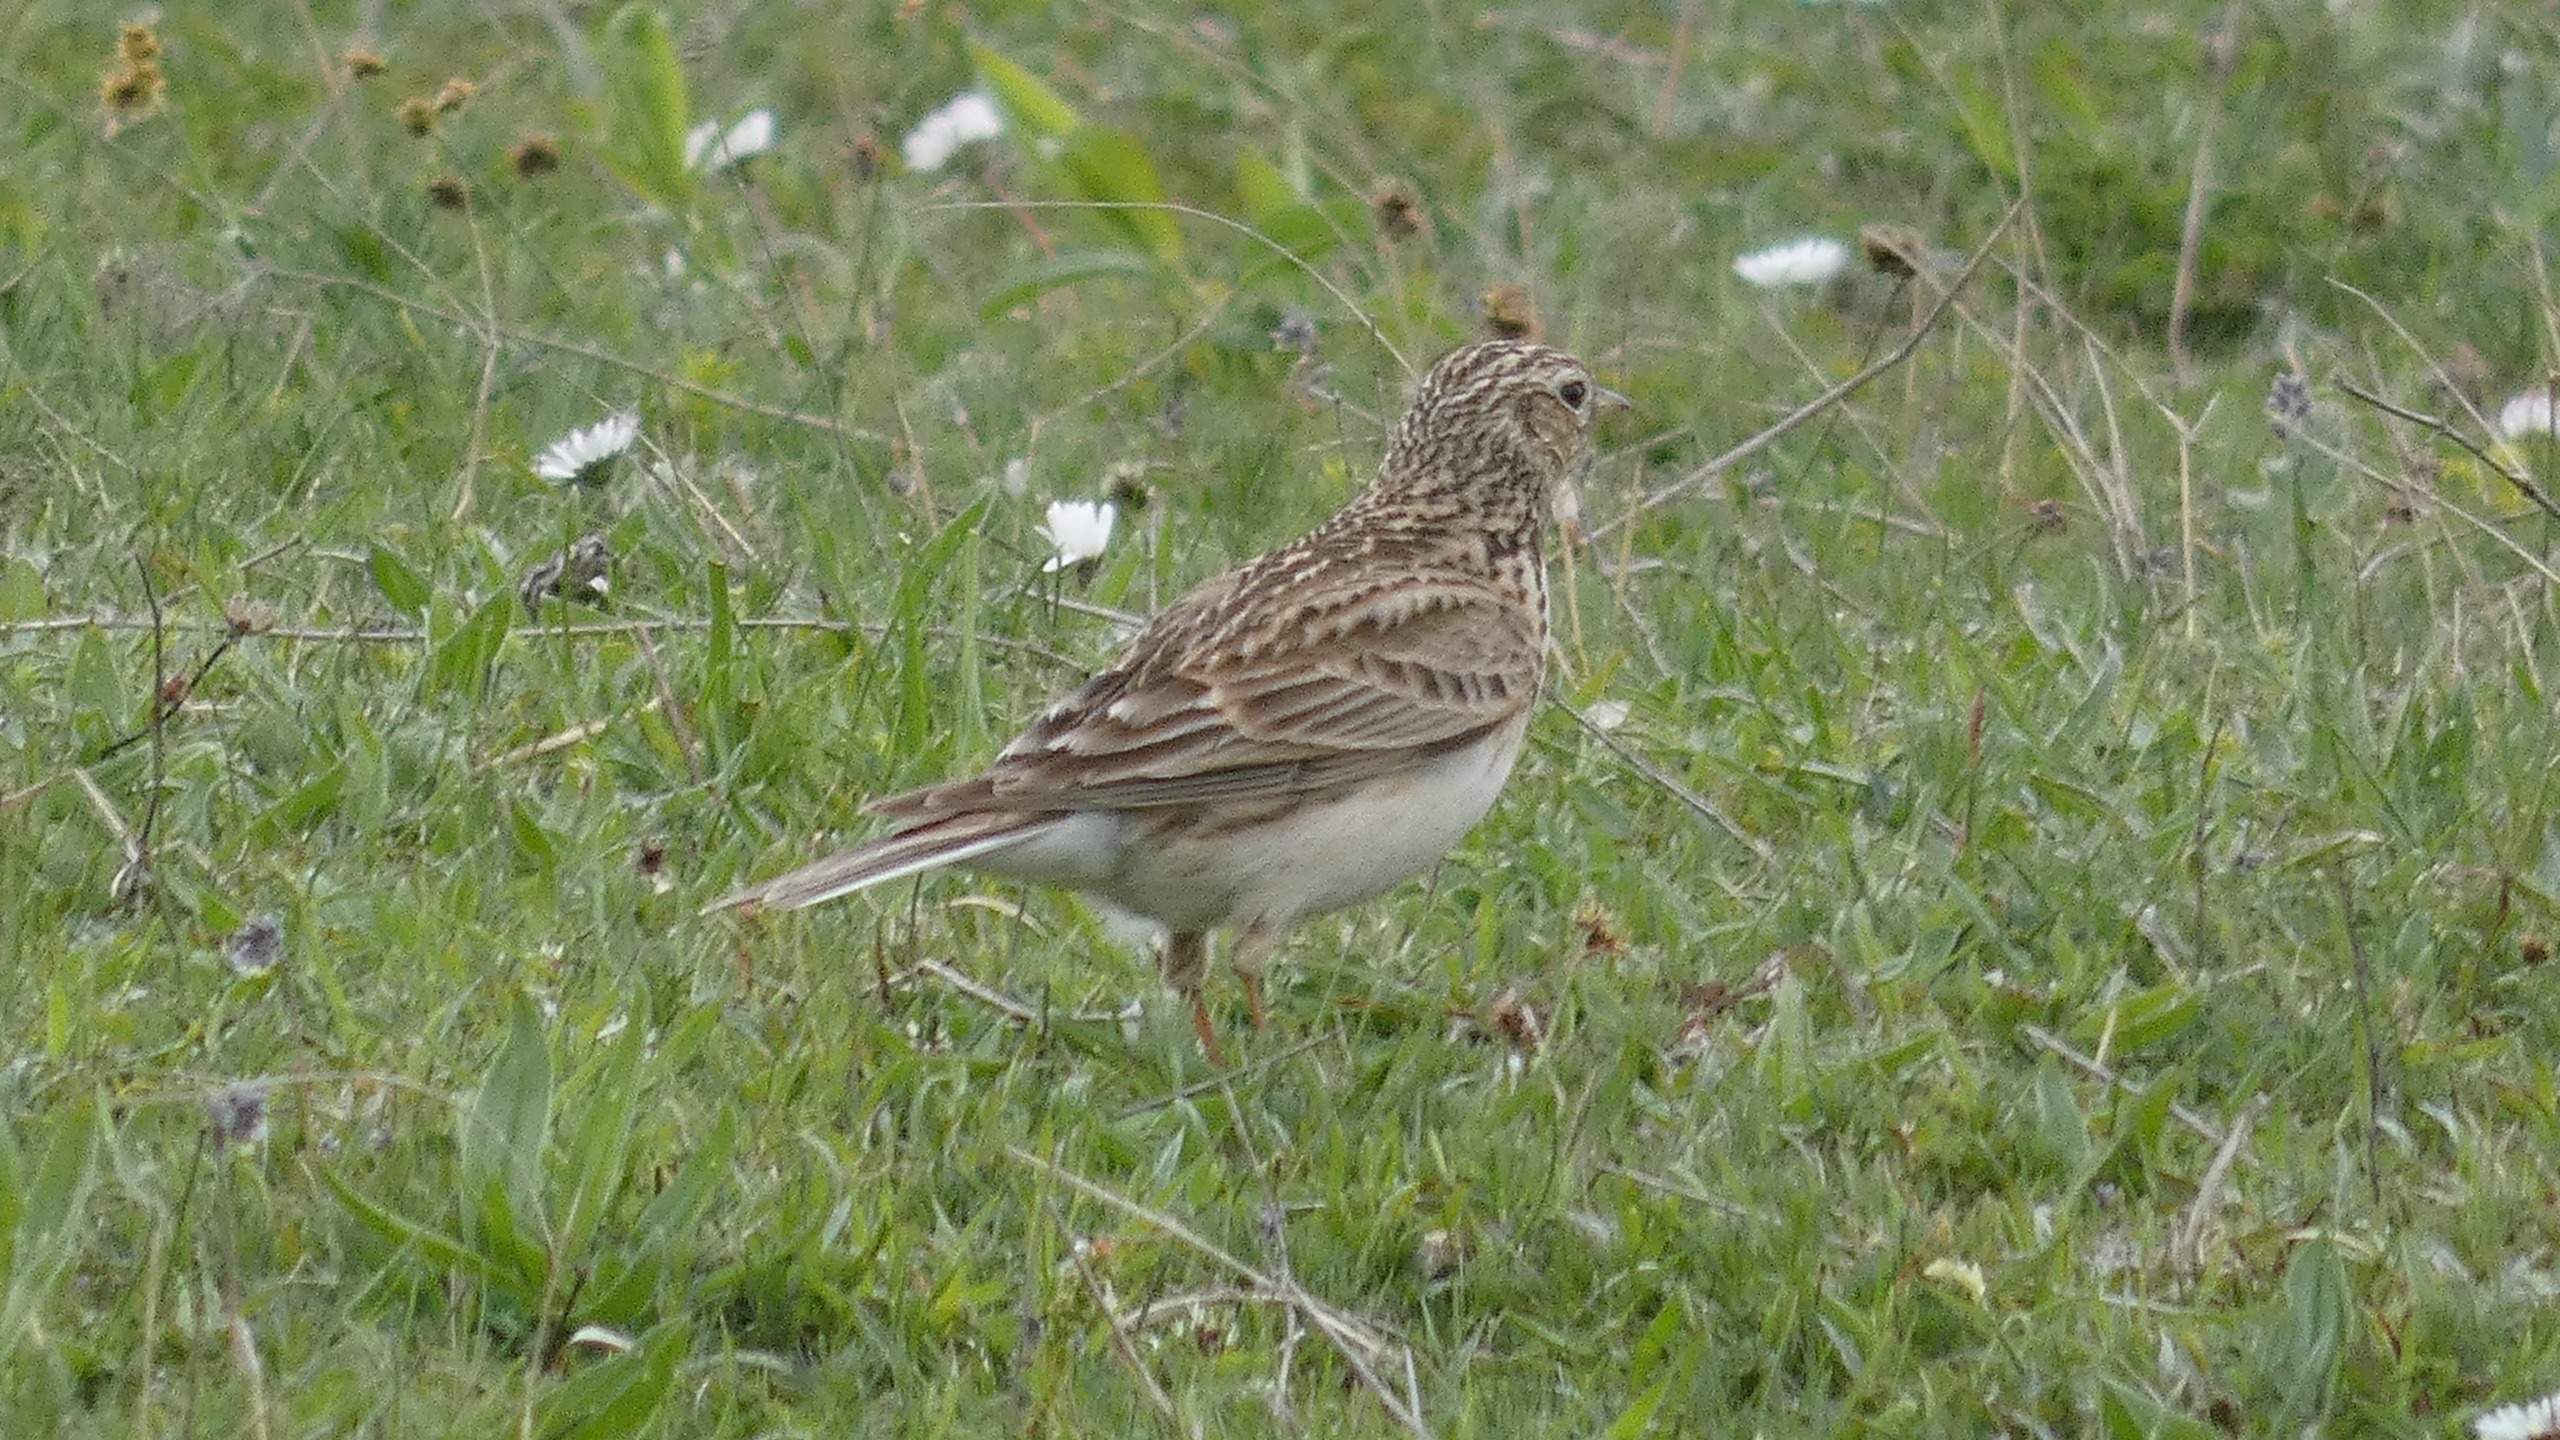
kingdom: Animalia
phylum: Chordata
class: Aves
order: Passeriformes
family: Alaudidae
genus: Alauda
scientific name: Alauda arvensis
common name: Sanglærke
